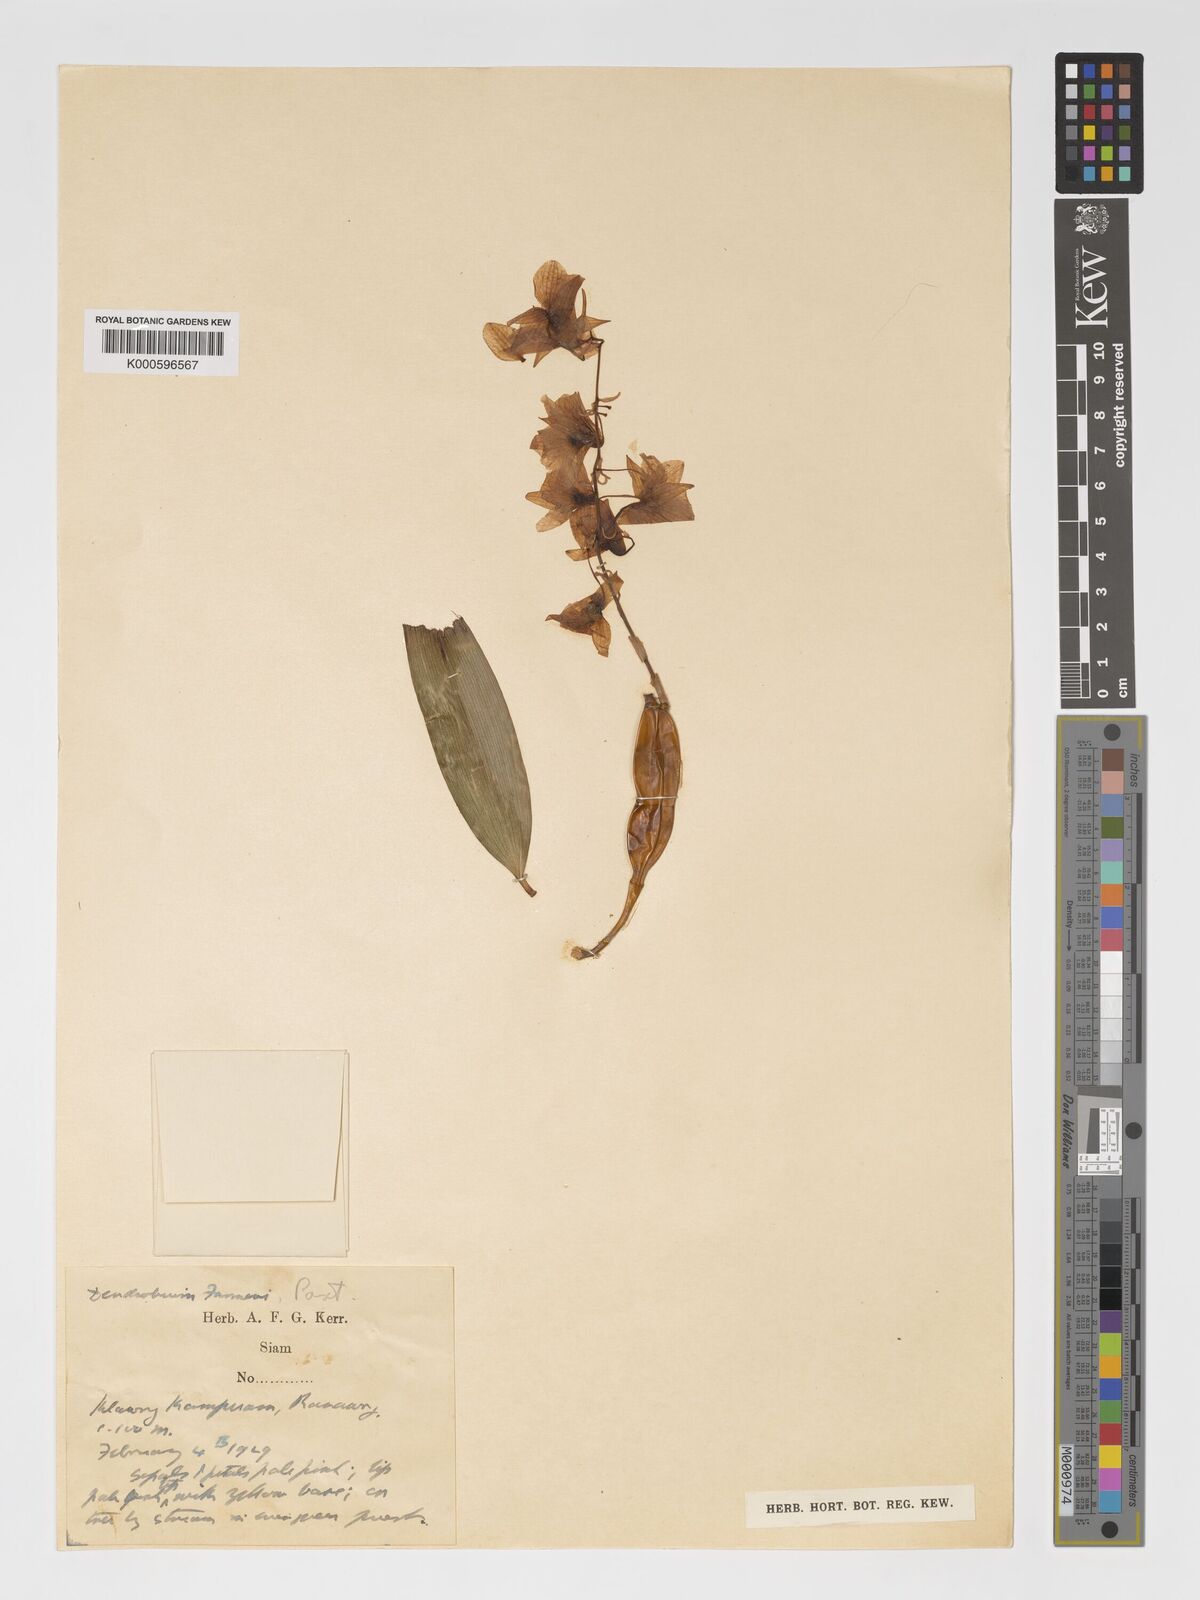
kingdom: Plantae
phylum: Tracheophyta
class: Liliopsida
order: Asparagales
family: Orchidaceae
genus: Dendrobium
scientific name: Dendrobium farmeri
